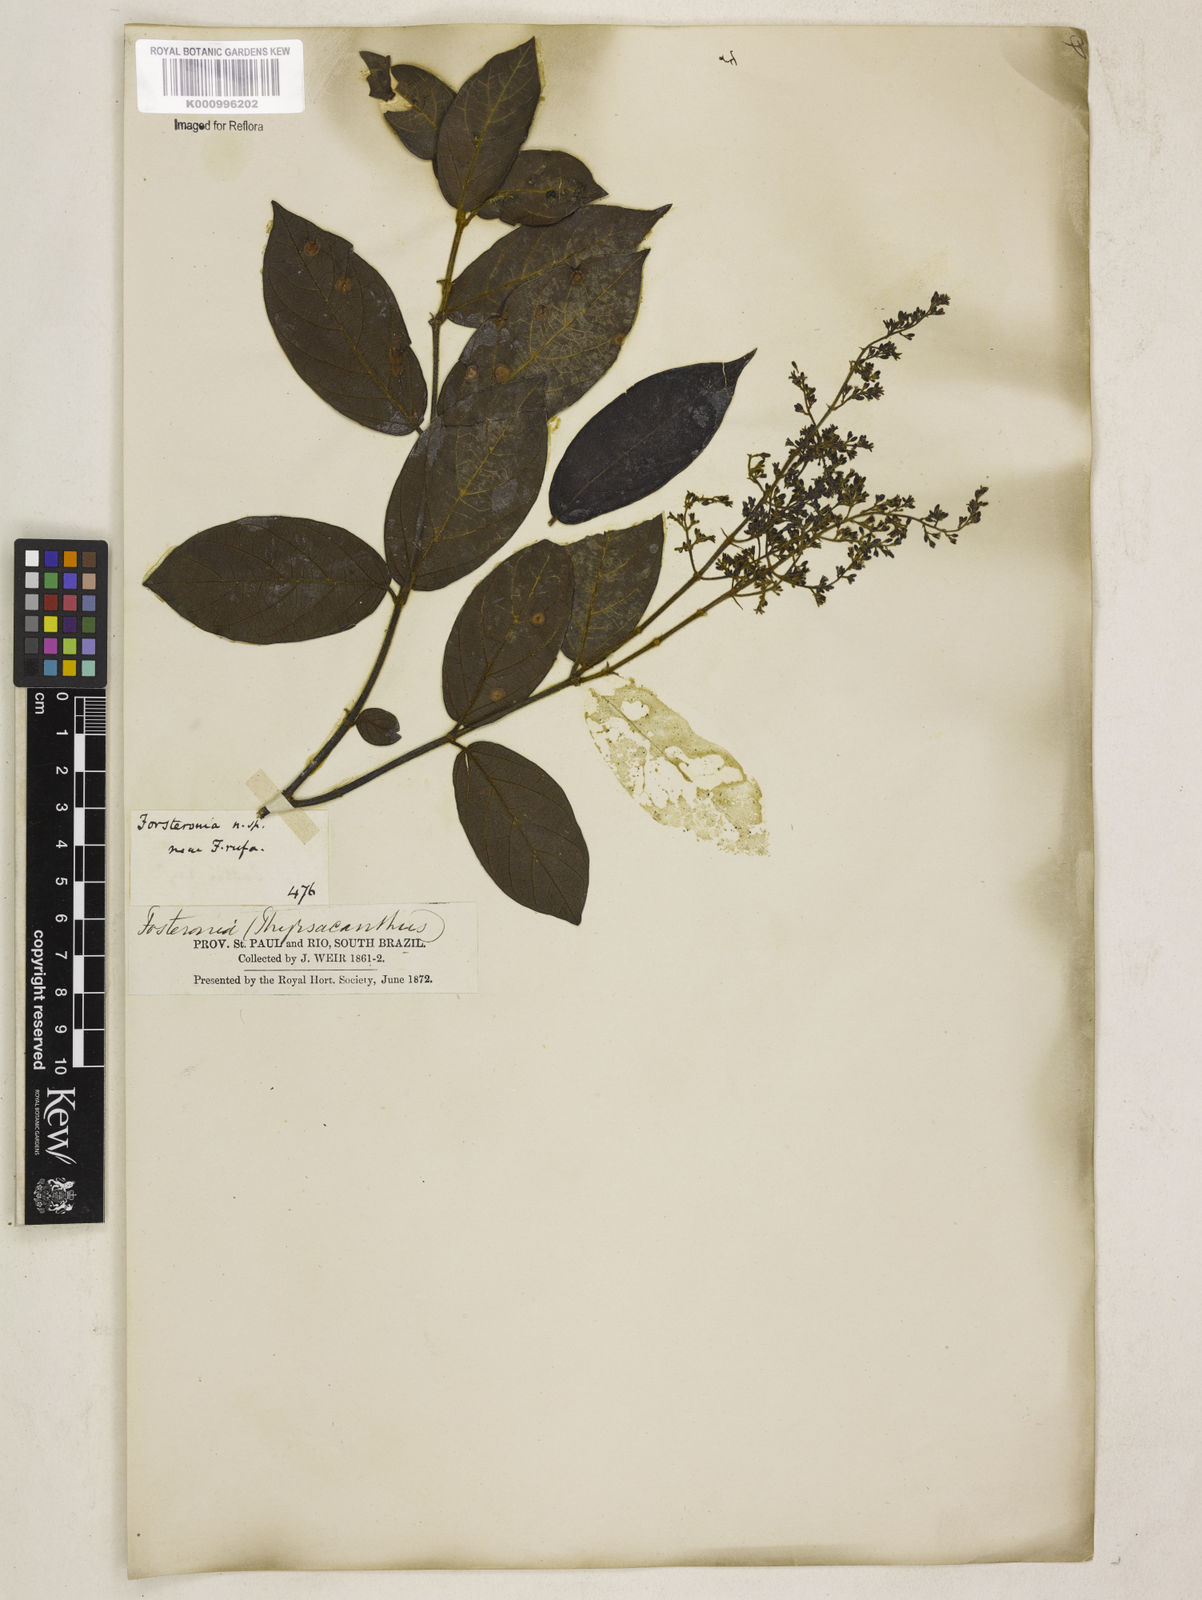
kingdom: Plantae
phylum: Tracheophyta
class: Magnoliopsida
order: Gentianales
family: Apocynaceae
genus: Forsteronia
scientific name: Forsteronia
